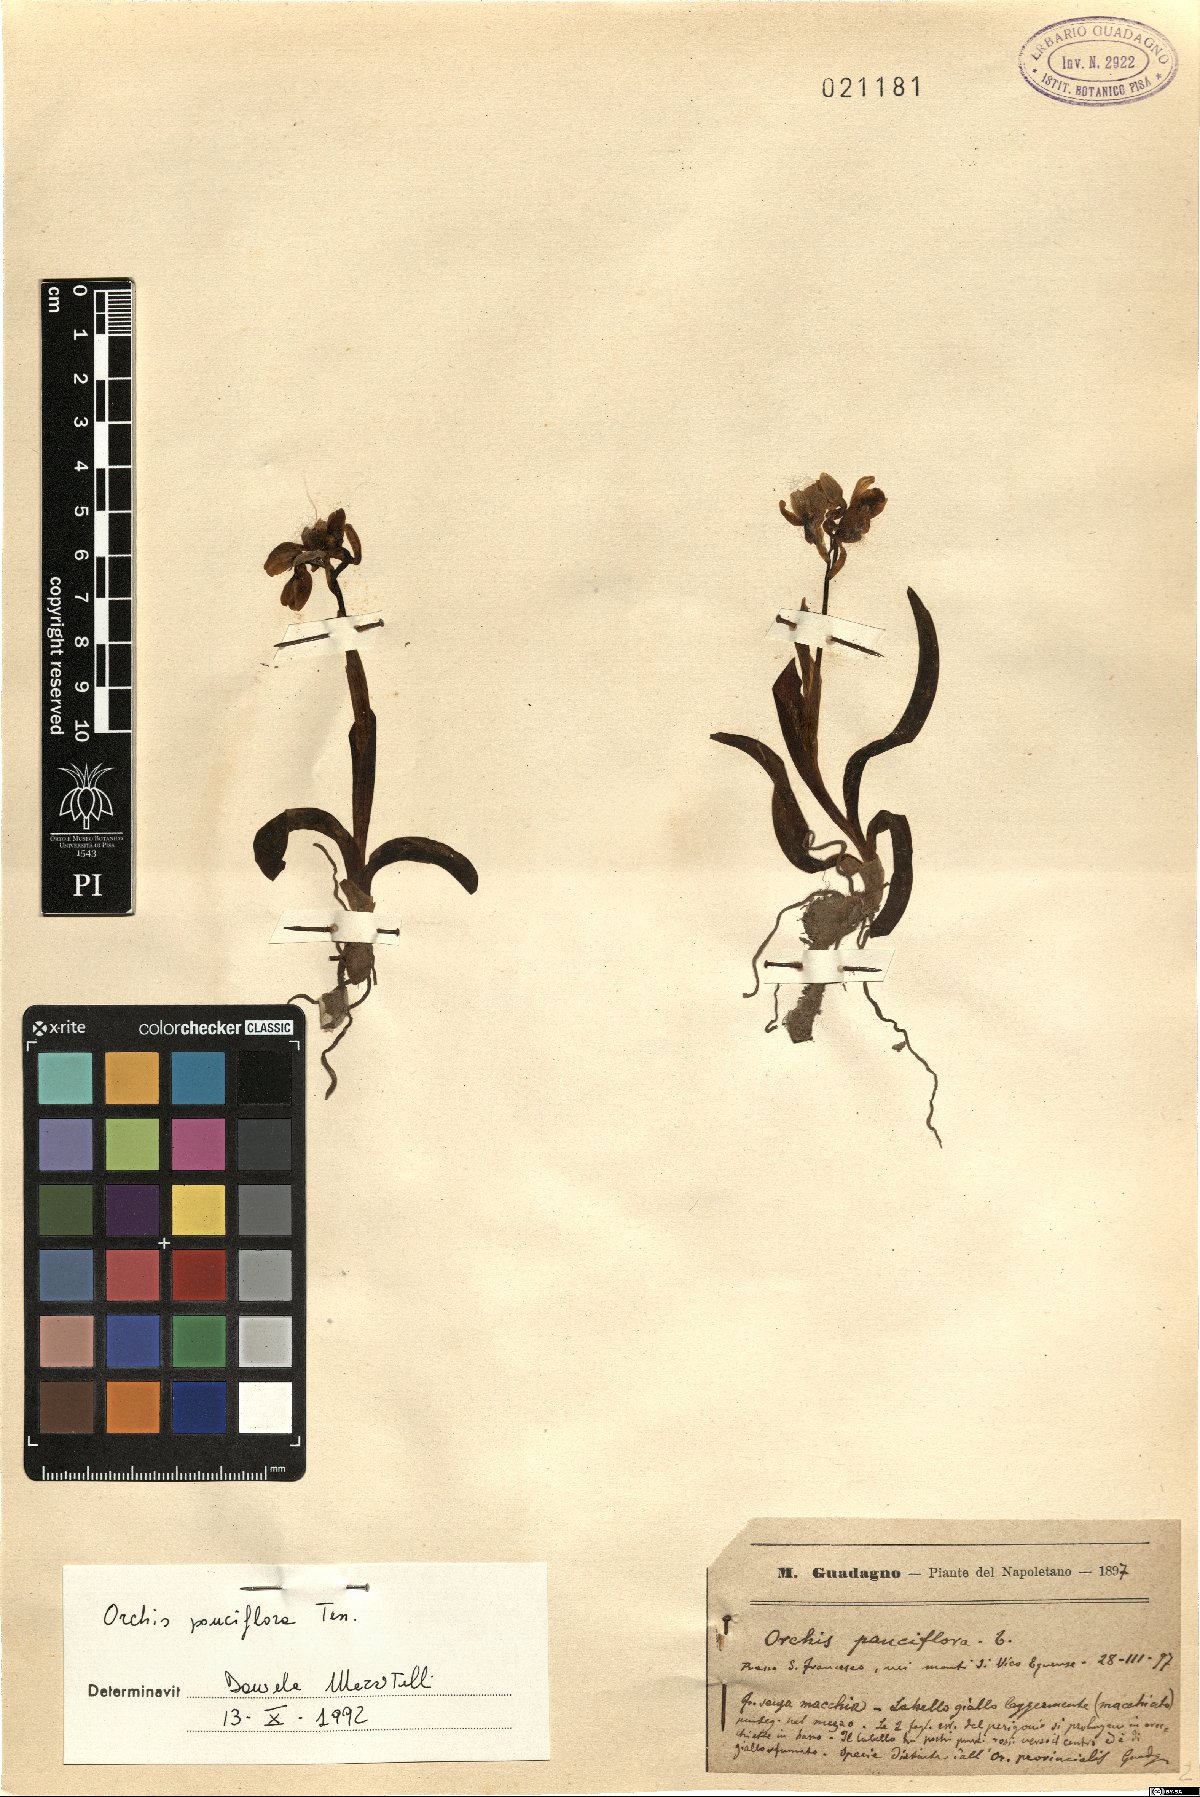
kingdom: Plantae
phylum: Tracheophyta
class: Liliopsida
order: Asparagales
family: Orchidaceae
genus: Orchis
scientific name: Orchis pauciflora
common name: Few-flowered orchid
